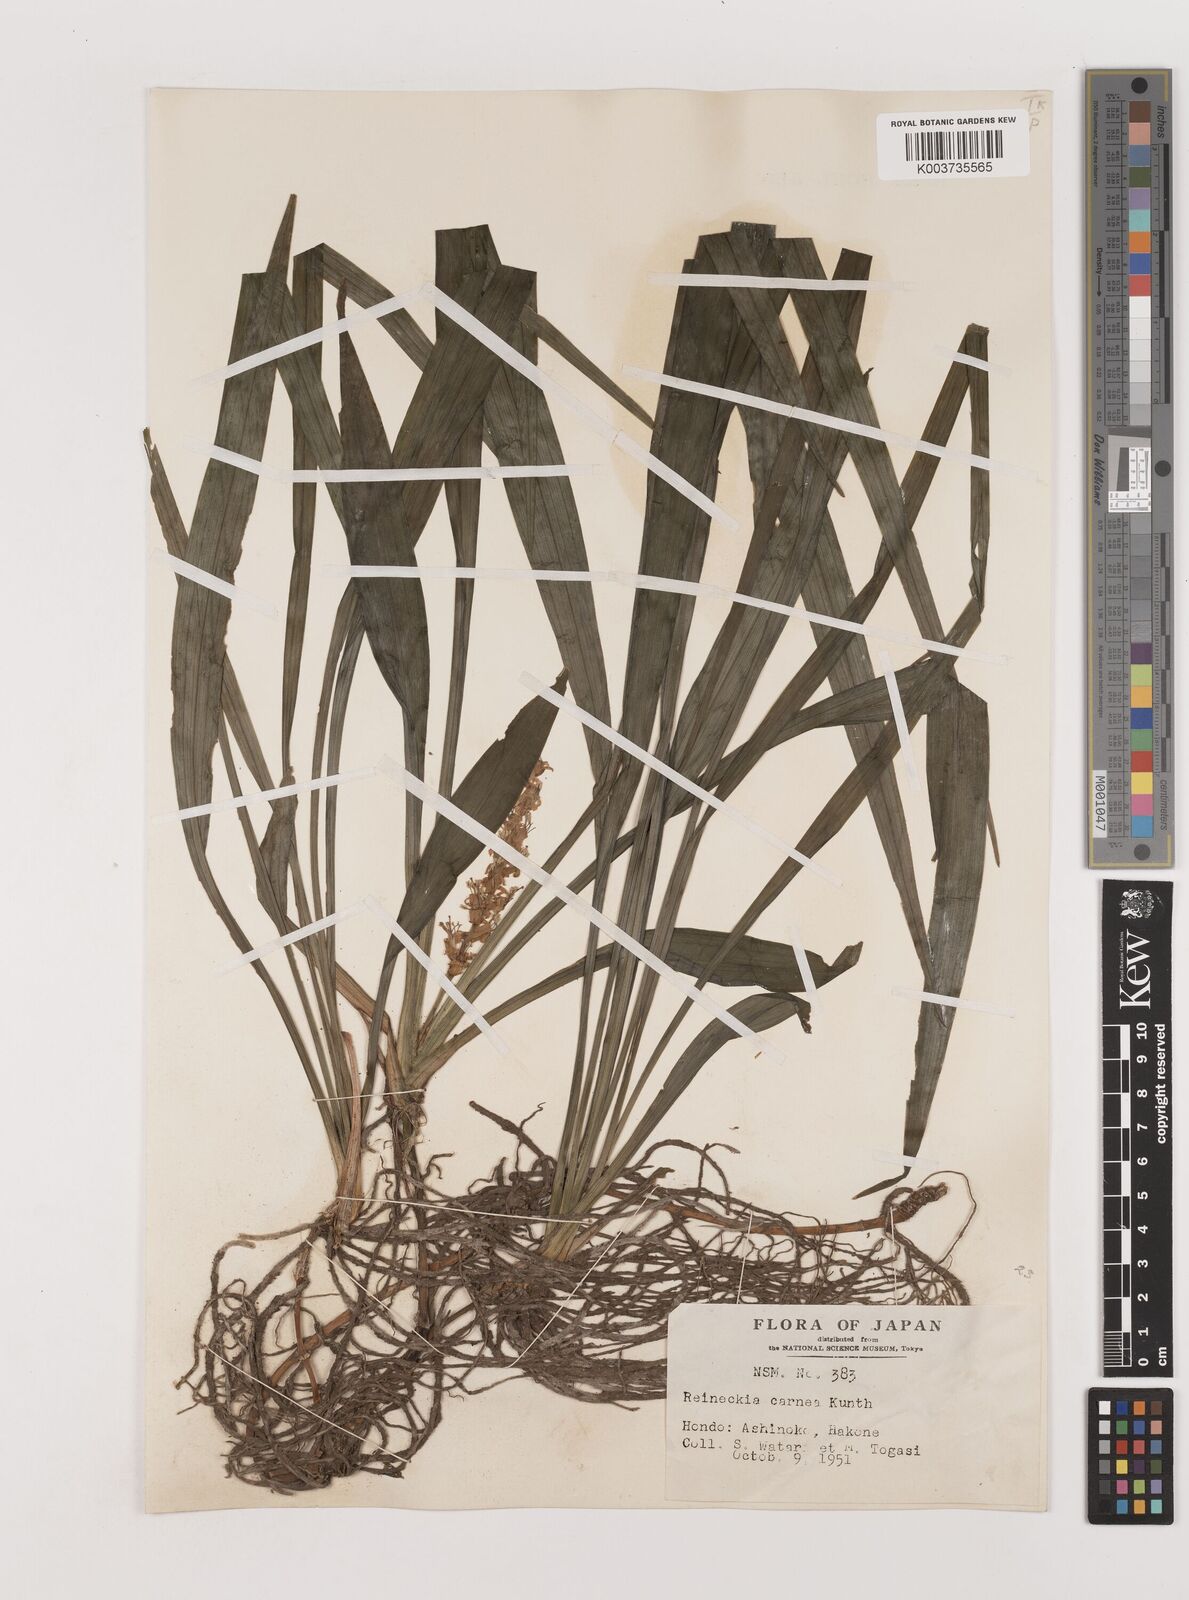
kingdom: Plantae
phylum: Tracheophyta
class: Liliopsida
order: Asparagales
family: Asparagaceae
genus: Reineckea
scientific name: Reineckea carnea
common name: Reineckea
